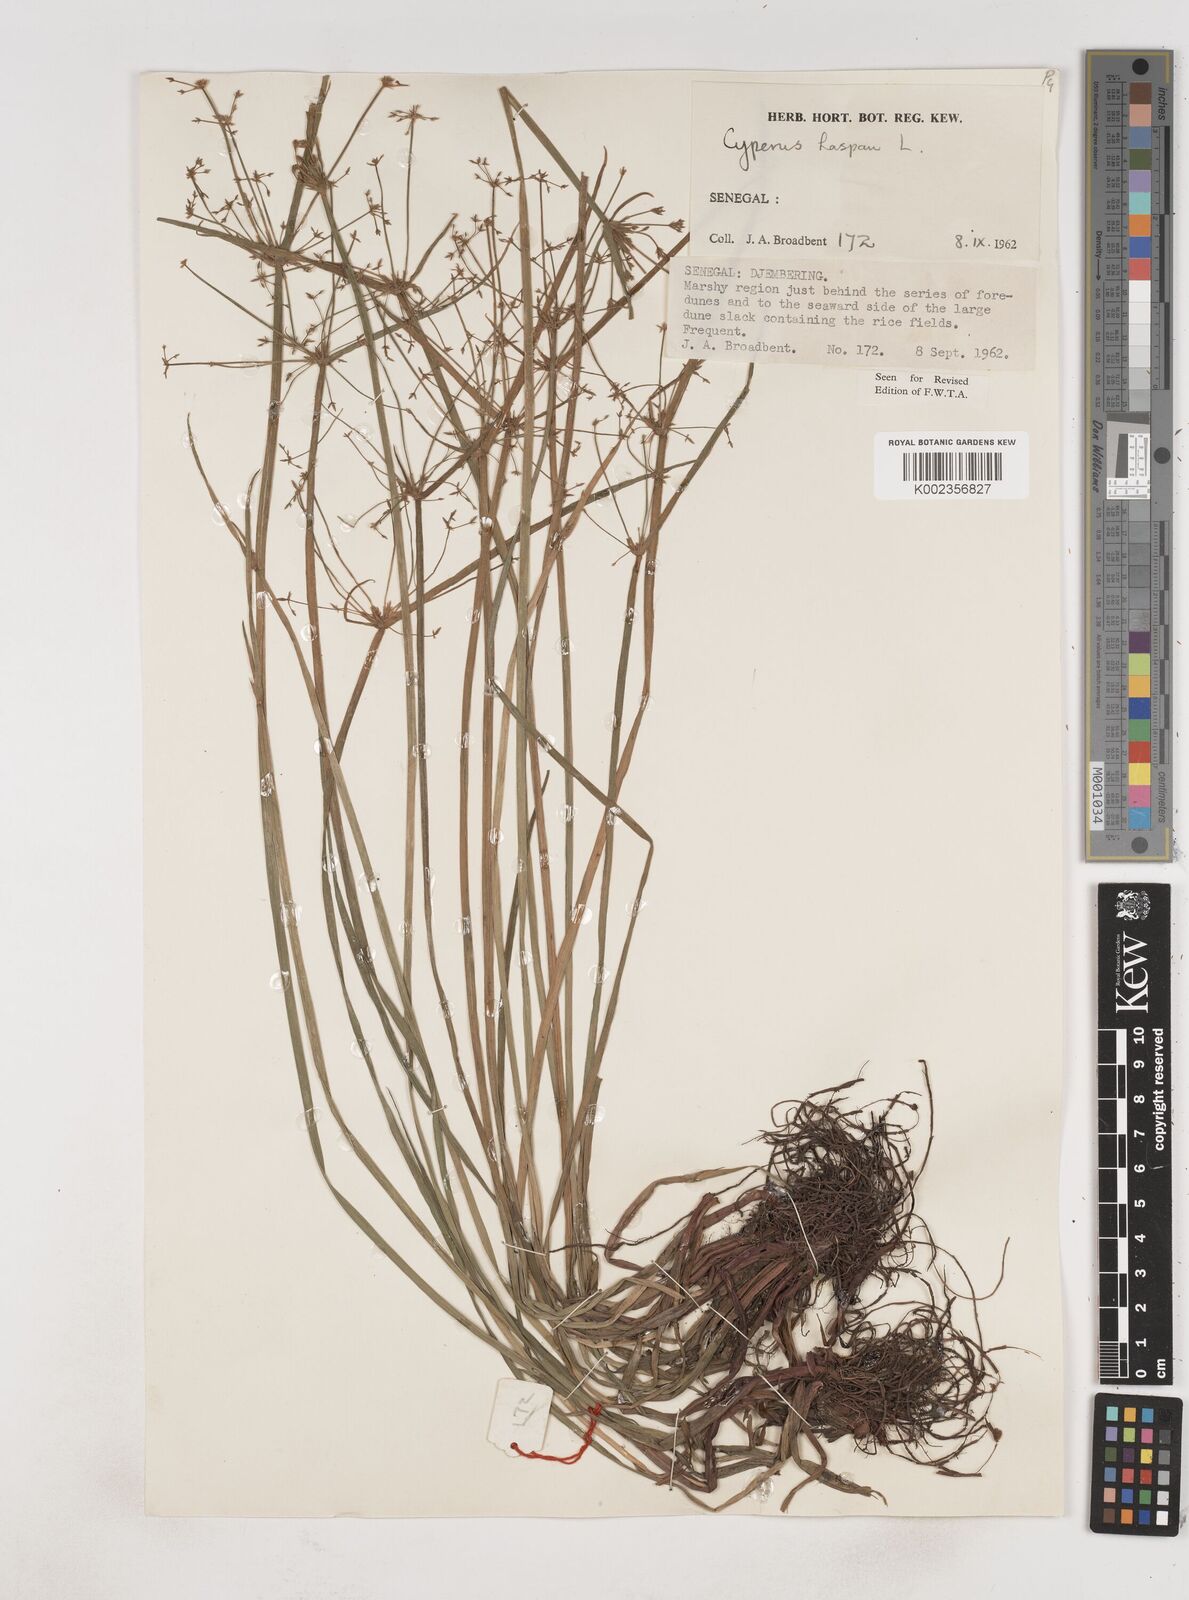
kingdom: Plantae
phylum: Tracheophyta
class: Liliopsida
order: Poales
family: Cyperaceae
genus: Cyperus
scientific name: Cyperus haspan
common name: Haspan flatsedge
